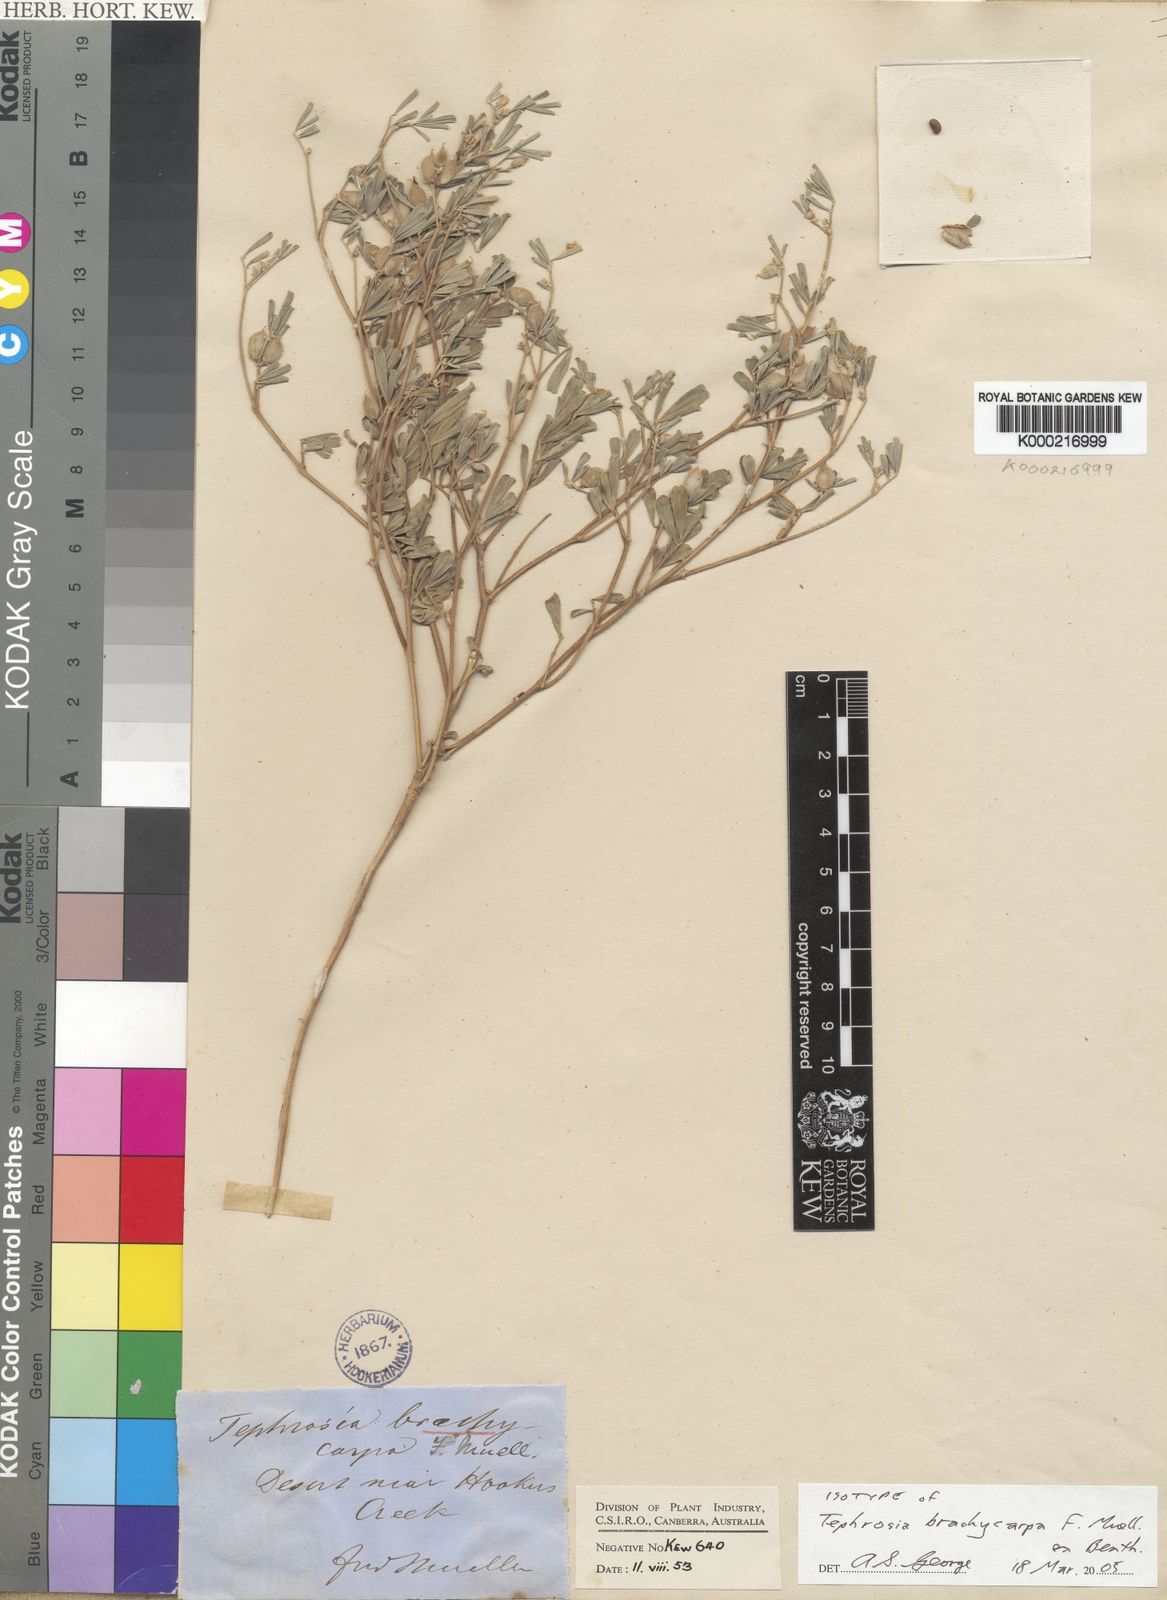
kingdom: Plantae
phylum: Tracheophyta
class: Magnoliopsida
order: Fabales
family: Fabaceae
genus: Tephrosia
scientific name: Tephrosia brachycarpa
